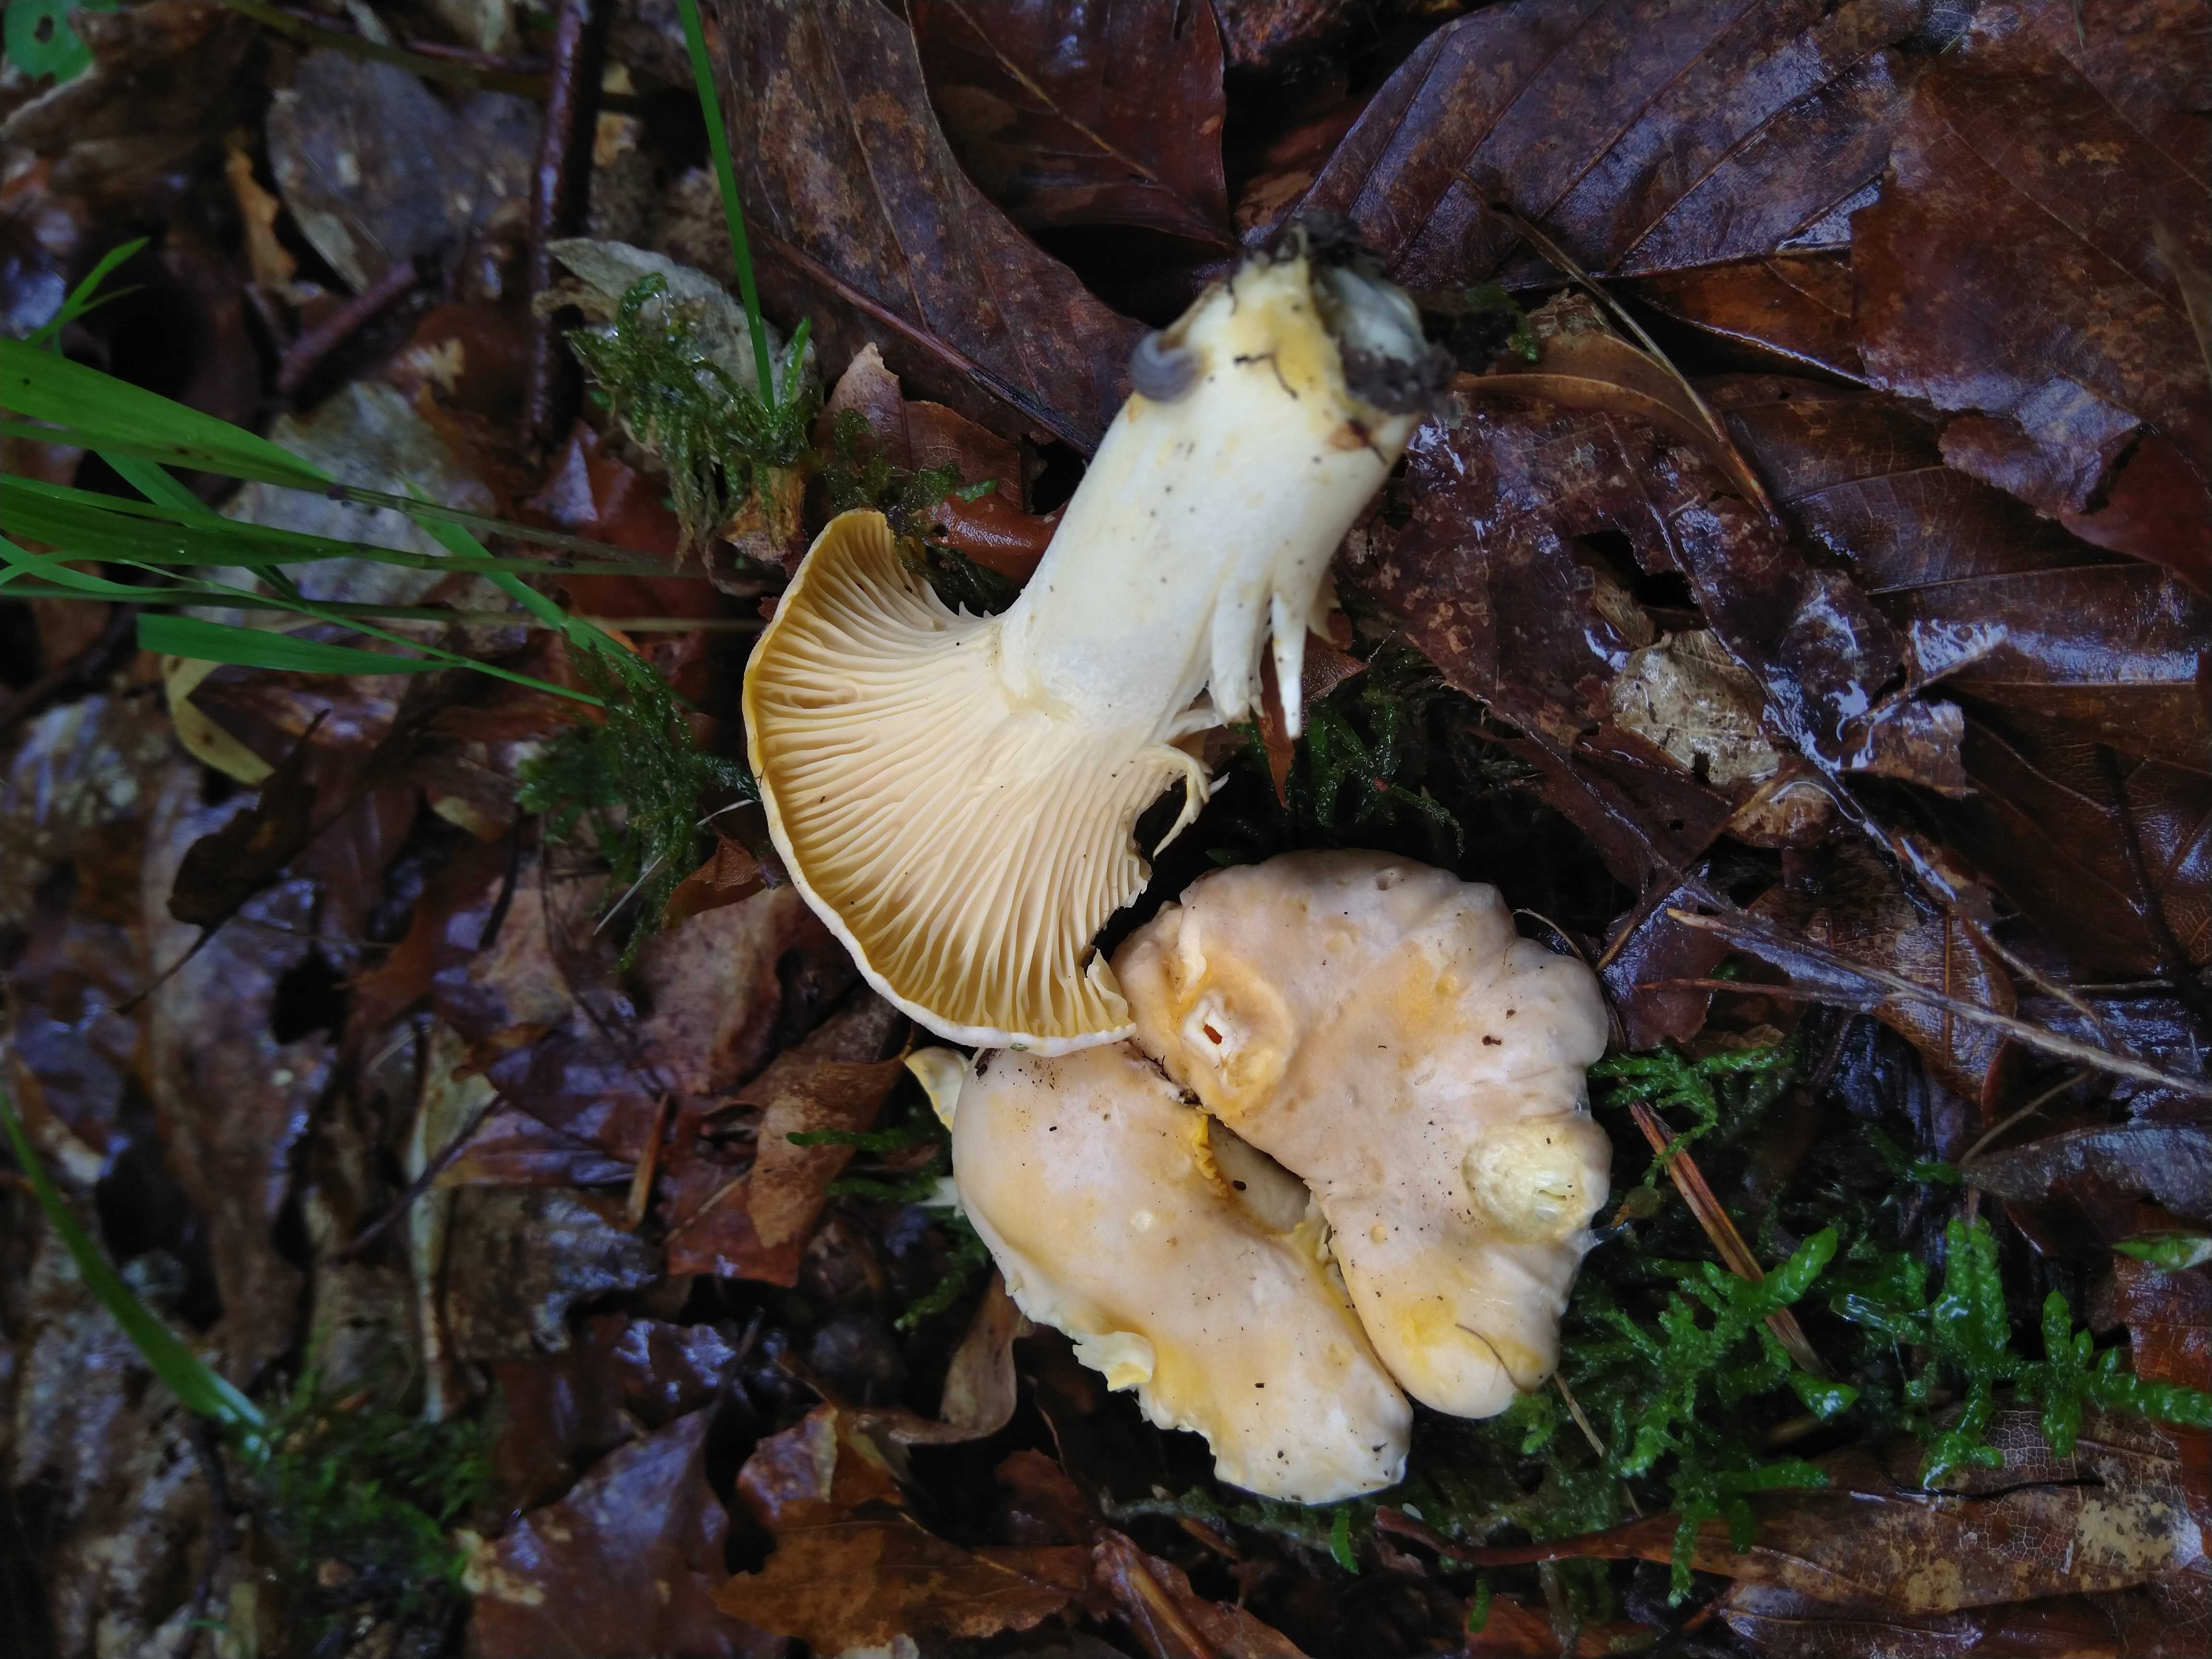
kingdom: Fungi
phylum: Basidiomycota
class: Agaricomycetes
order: Cantharellales
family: Hydnaceae
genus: Cantharellus
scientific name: Cantharellus pallens
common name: bleg kantarel
